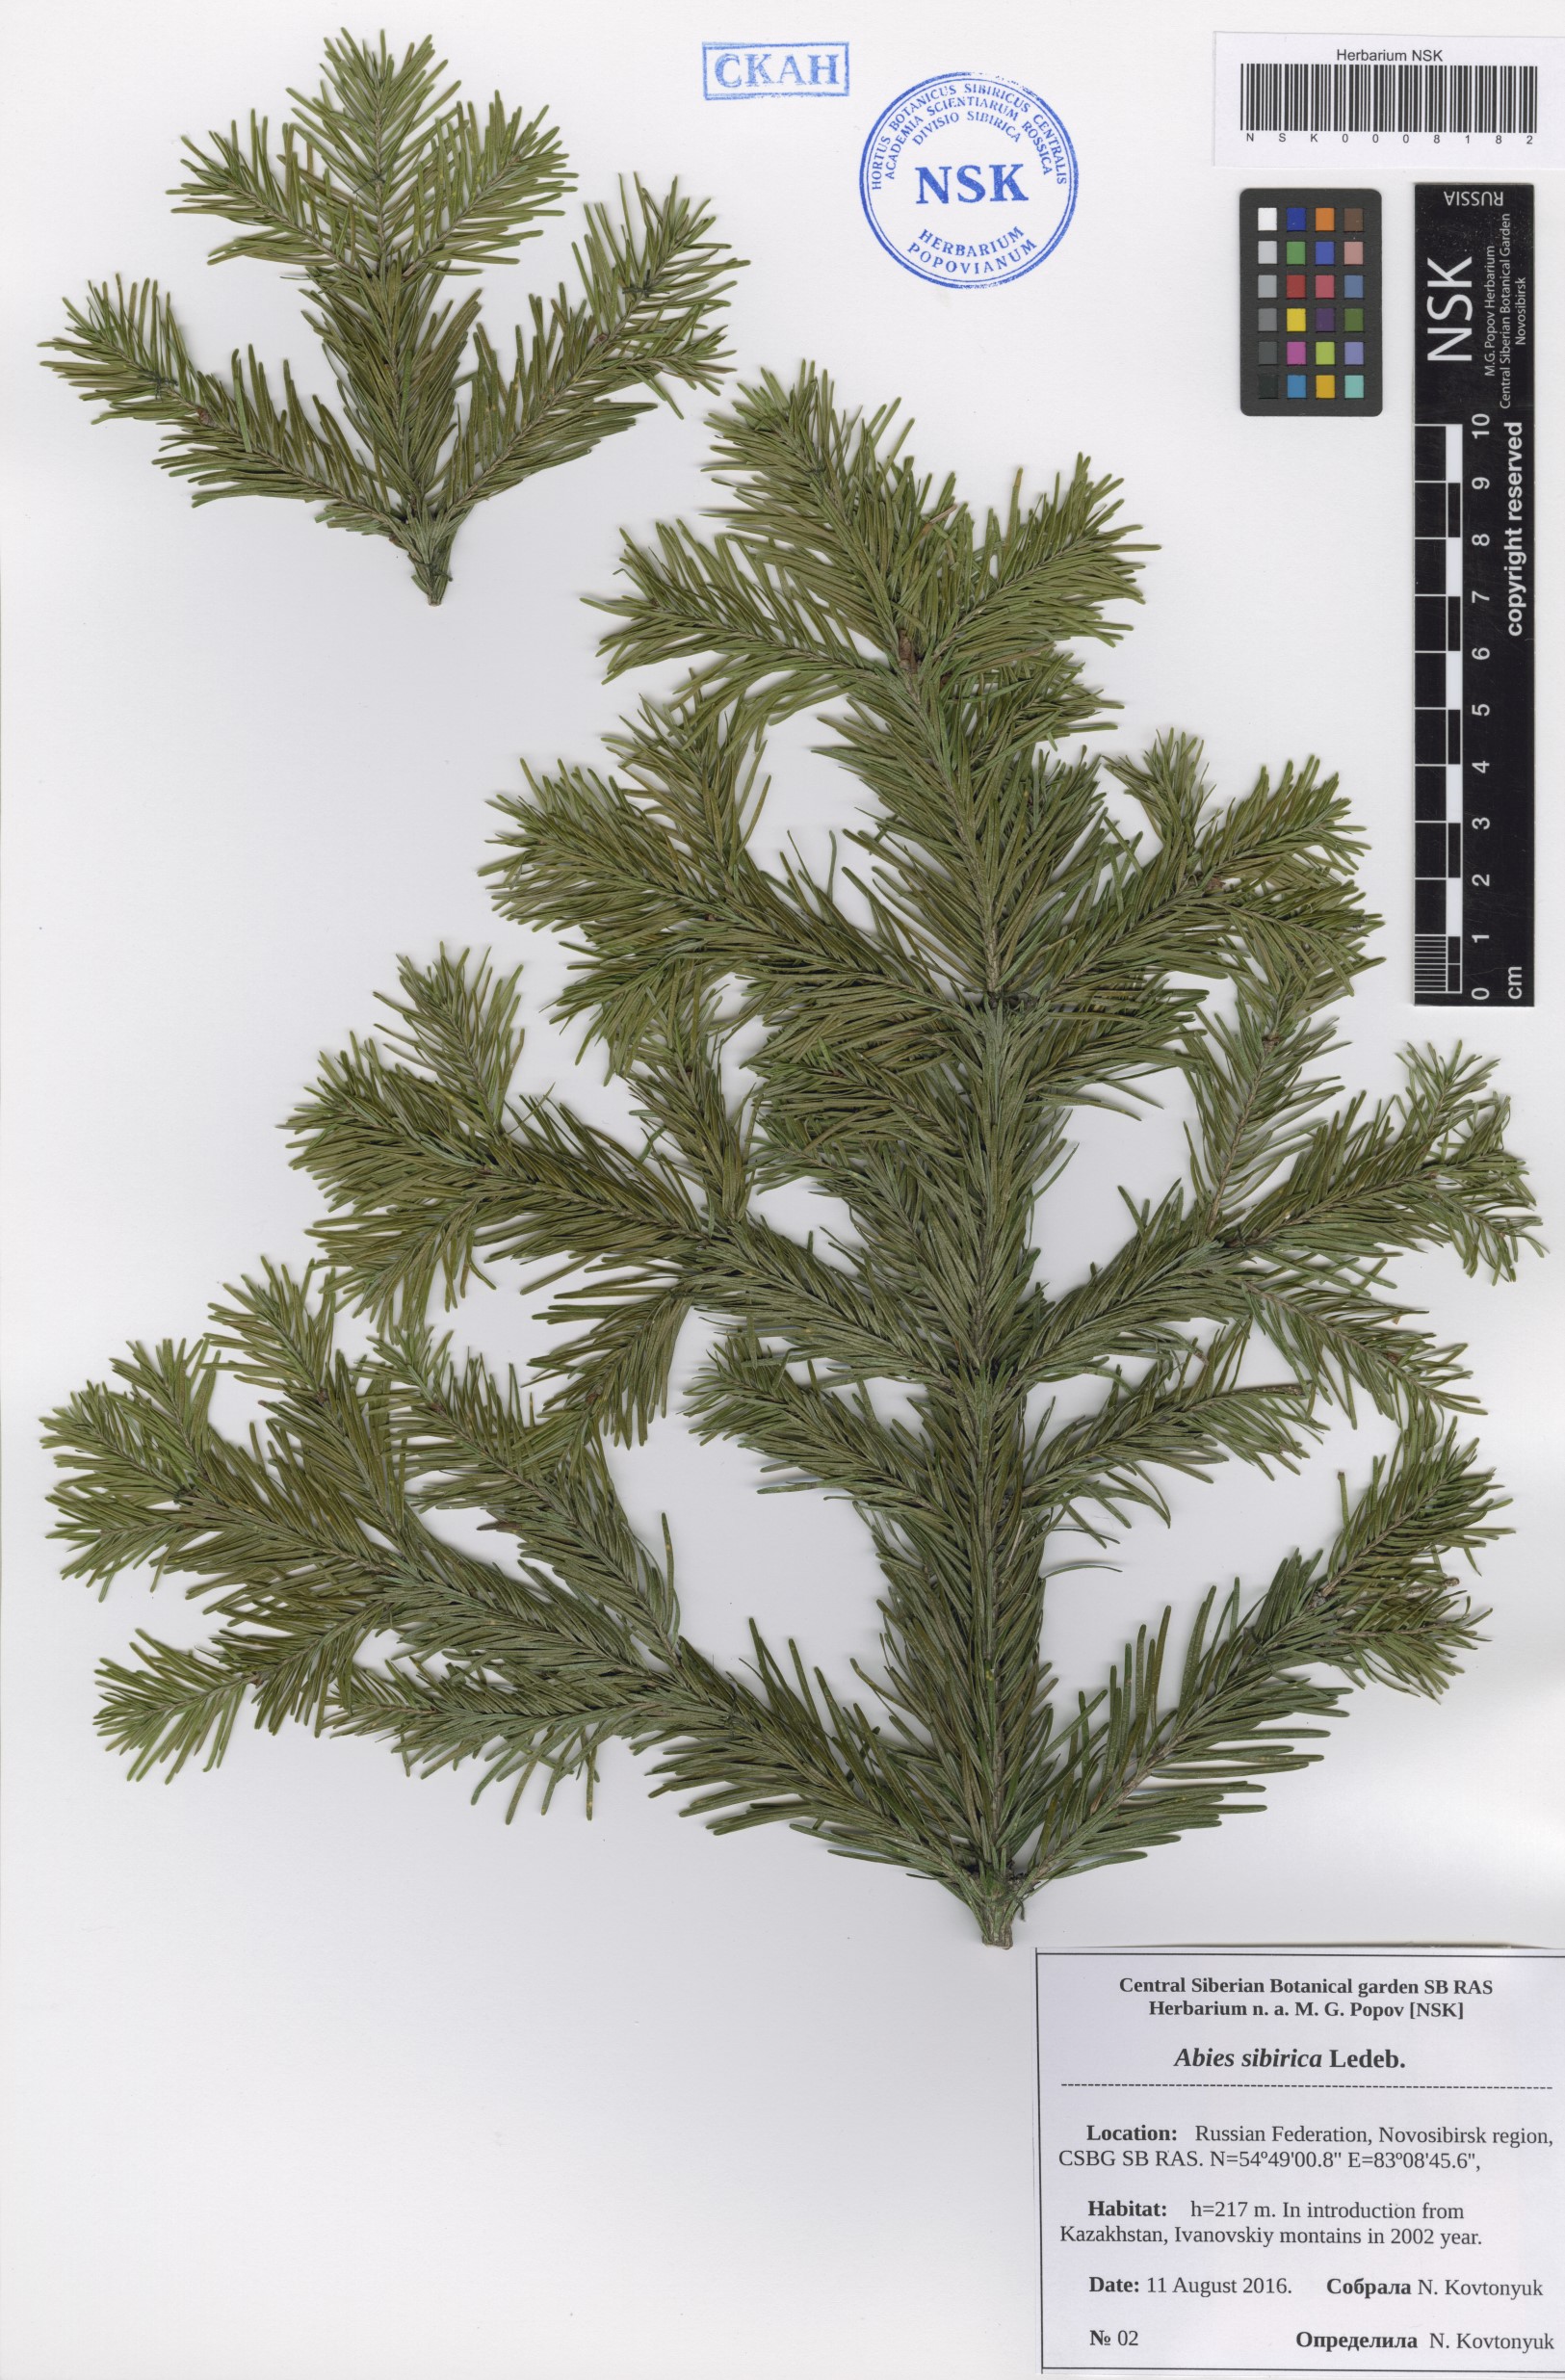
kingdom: Plantae
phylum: Tracheophyta
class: Pinopsida
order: Pinales
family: Pinaceae
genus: Abies
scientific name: Abies sibirica
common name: Siberian fir
